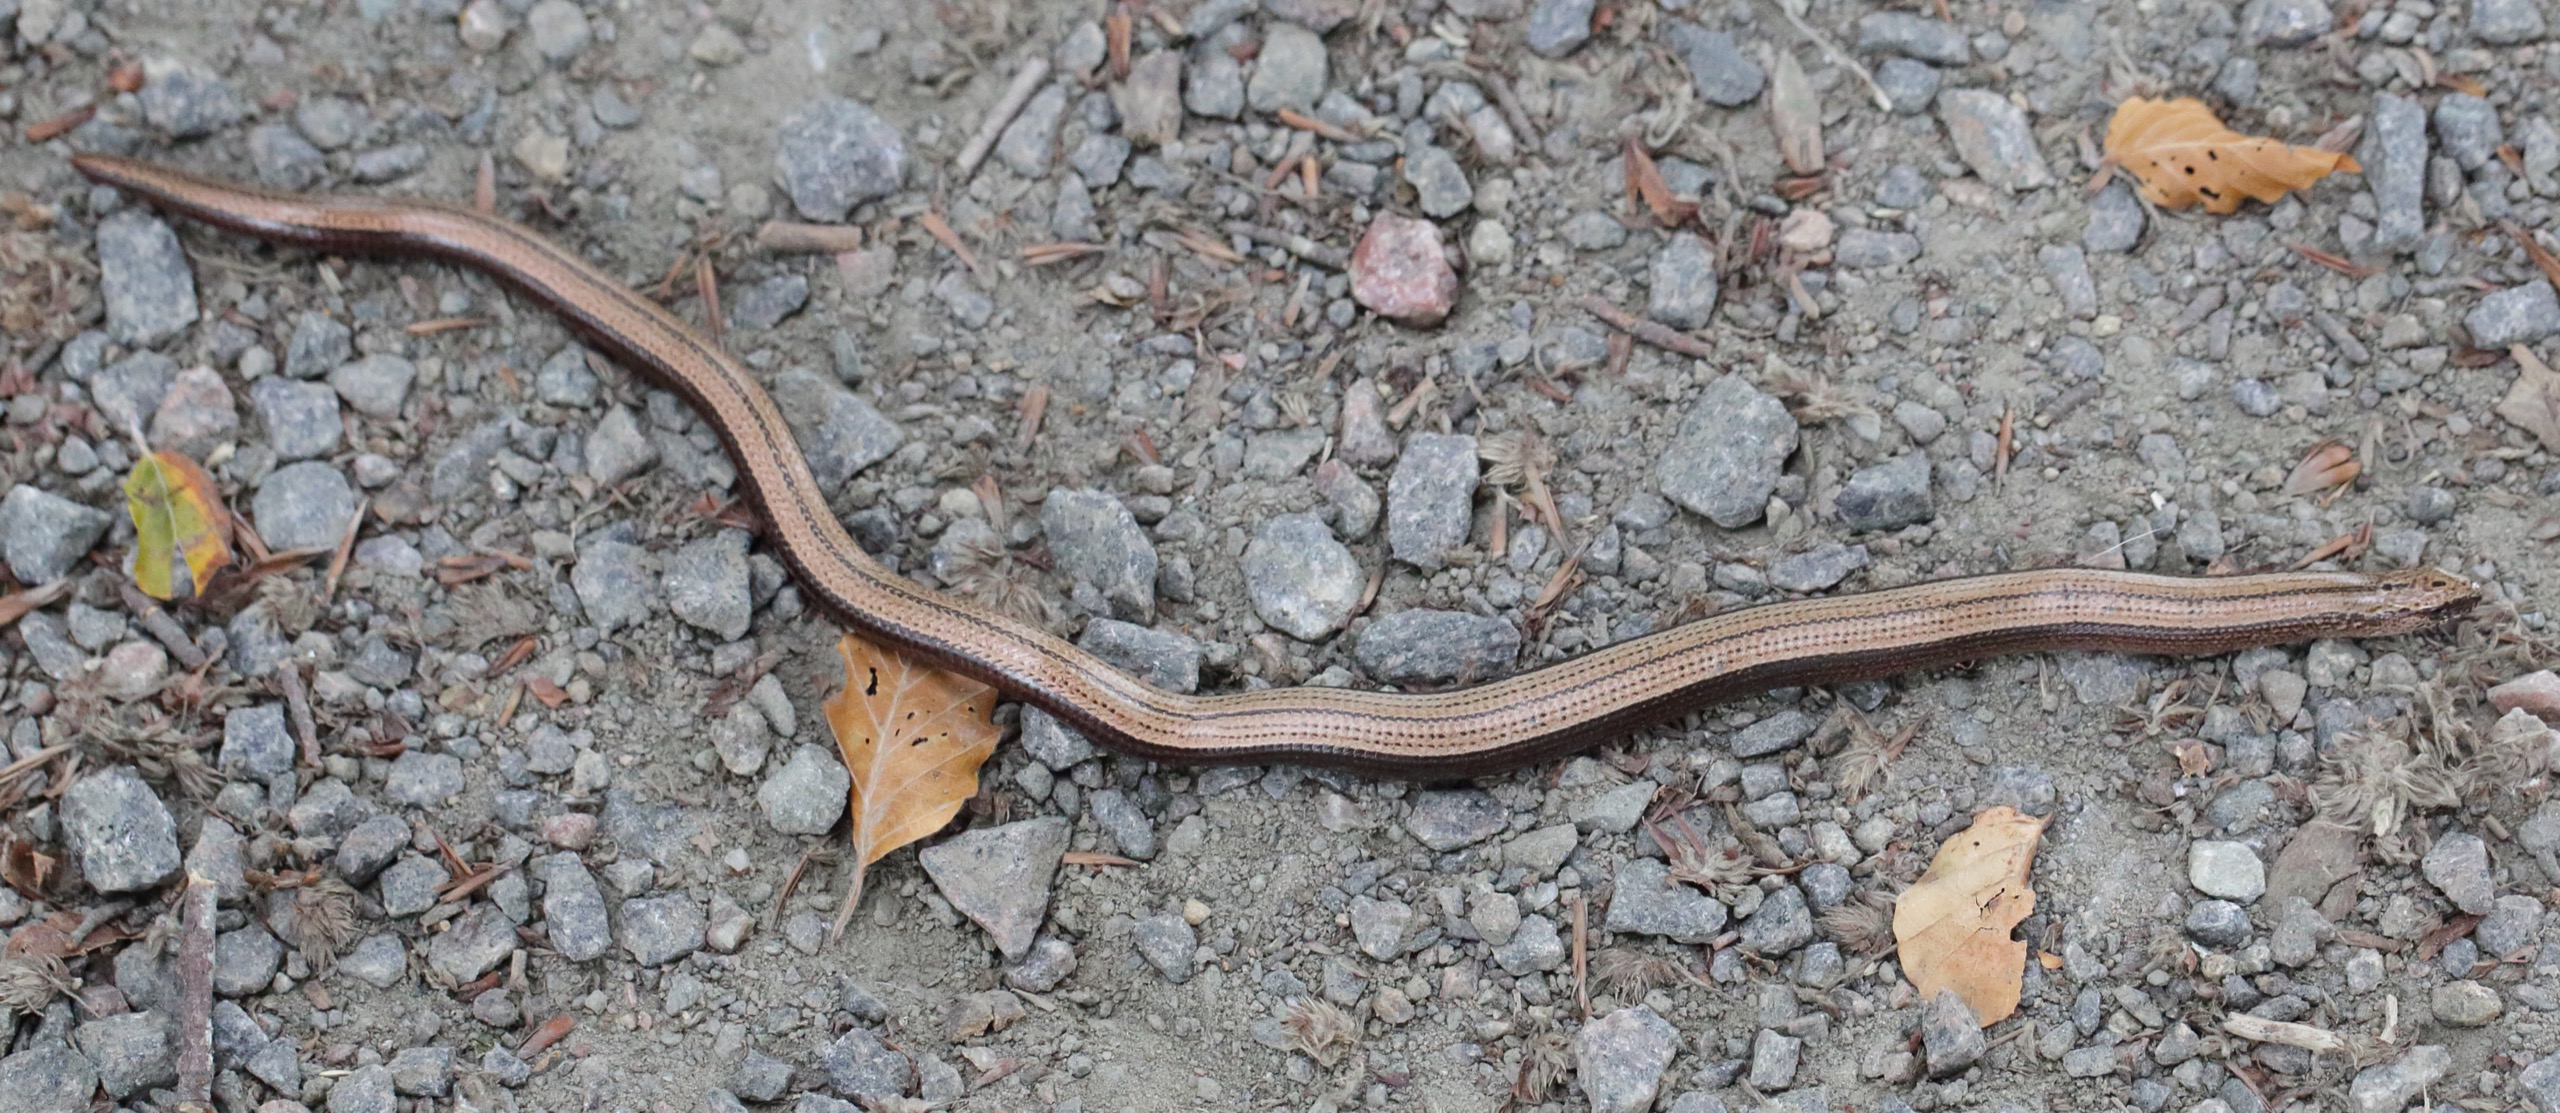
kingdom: Animalia
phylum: Chordata
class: Squamata
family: Anguidae
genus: Anguis
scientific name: Anguis fragilis
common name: Stålorm
